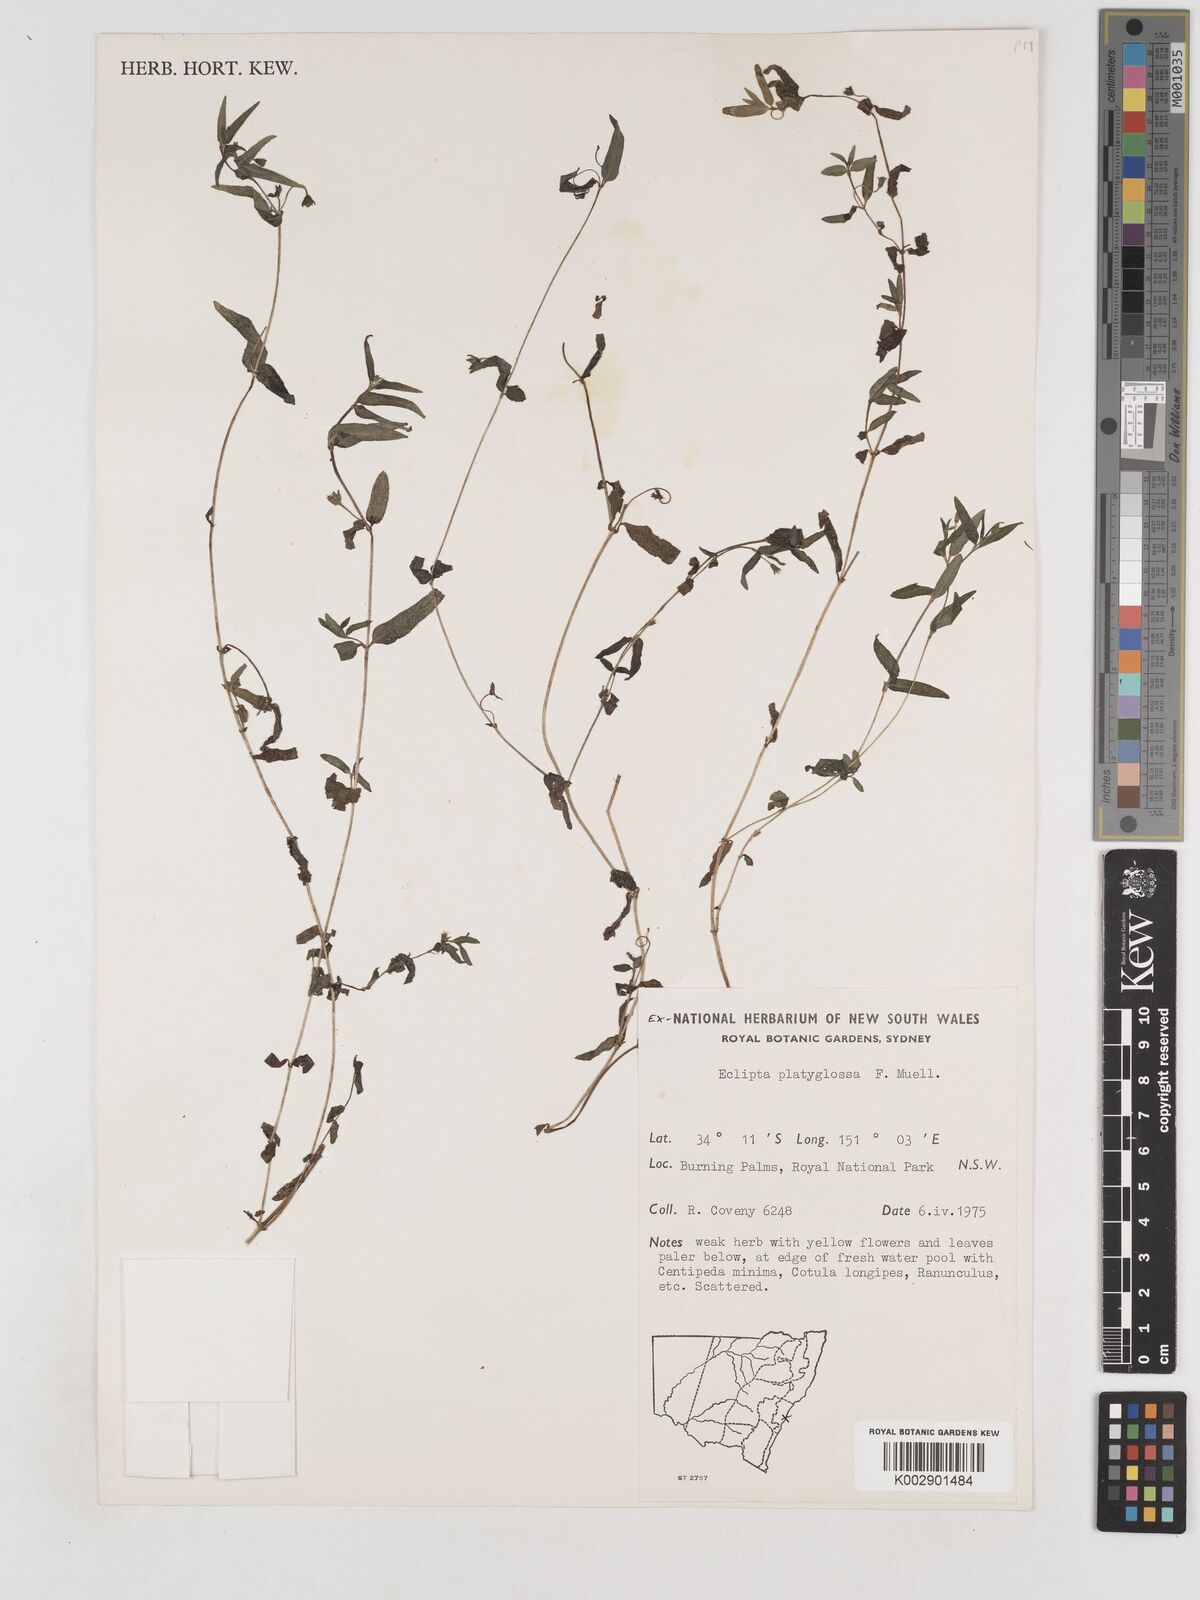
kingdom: Plantae
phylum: Tracheophyta
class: Magnoliopsida
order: Asterales
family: Asteraceae
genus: Eclipta
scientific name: Eclipta platyglossa
